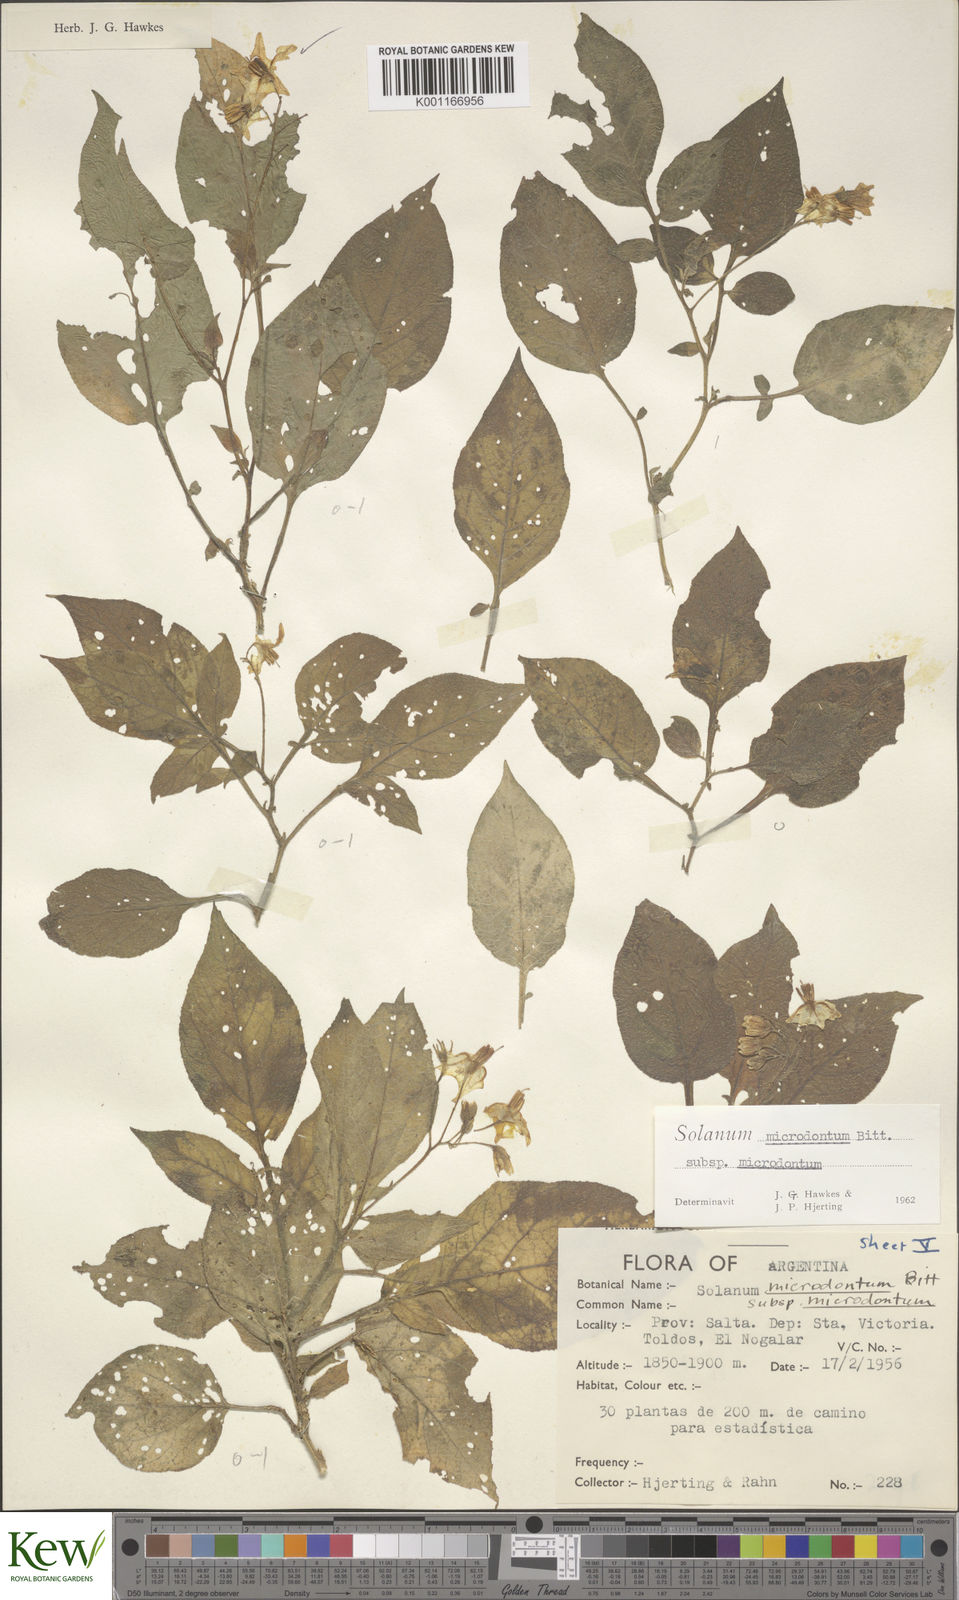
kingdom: Plantae
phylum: Tracheophyta
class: Magnoliopsida
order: Solanales
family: Solanaceae
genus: Solanum
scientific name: Solanum microdontum
